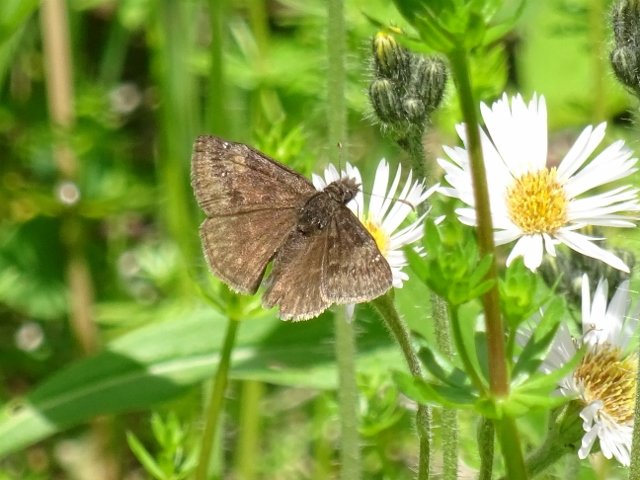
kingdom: Animalia
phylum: Arthropoda
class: Insecta
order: Lepidoptera
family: Hesperiidae
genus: Gesta
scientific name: Gesta
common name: Wild Indigo Duskywing
